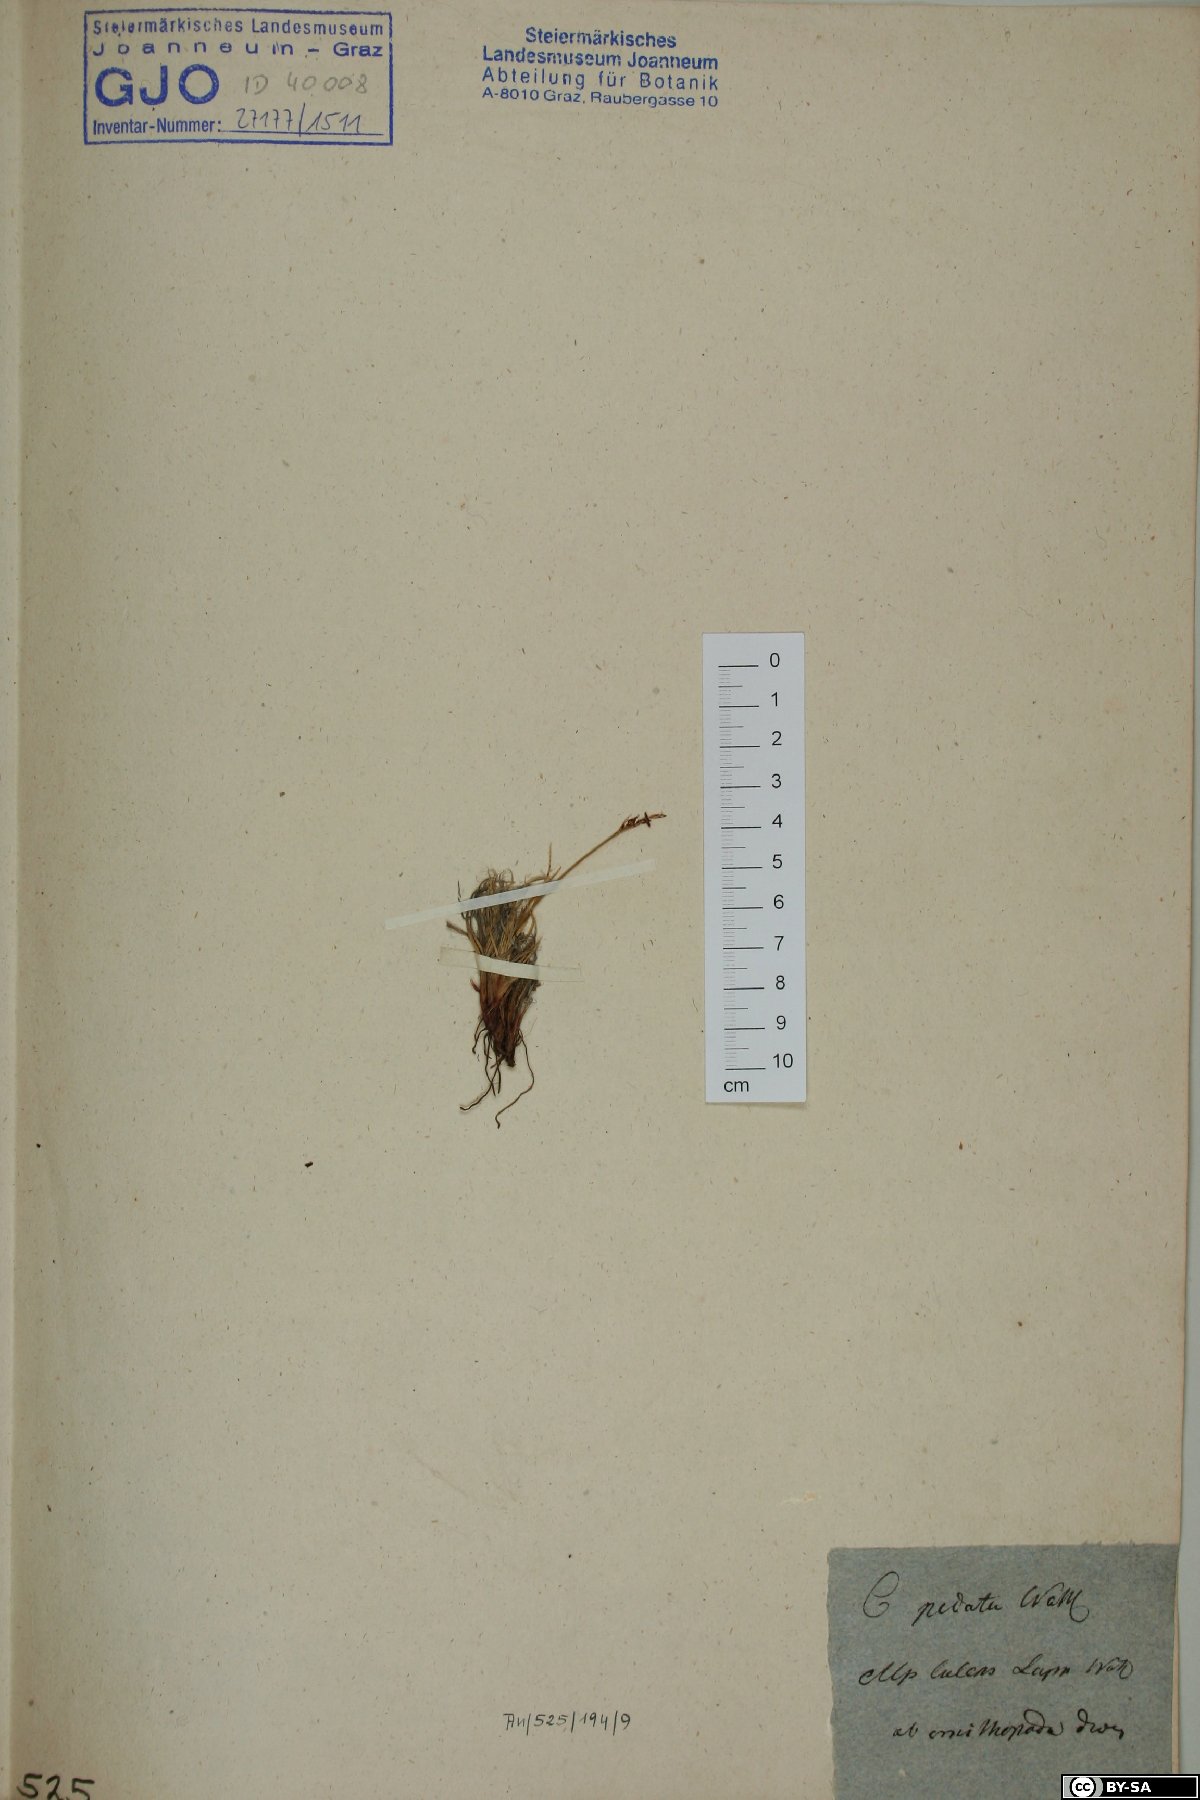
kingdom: Plantae
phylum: Tracheophyta
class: Liliopsida
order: Poales
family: Cyperaceae
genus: Carex
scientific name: Carex ornithopoda
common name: Bird's-foot sedge
